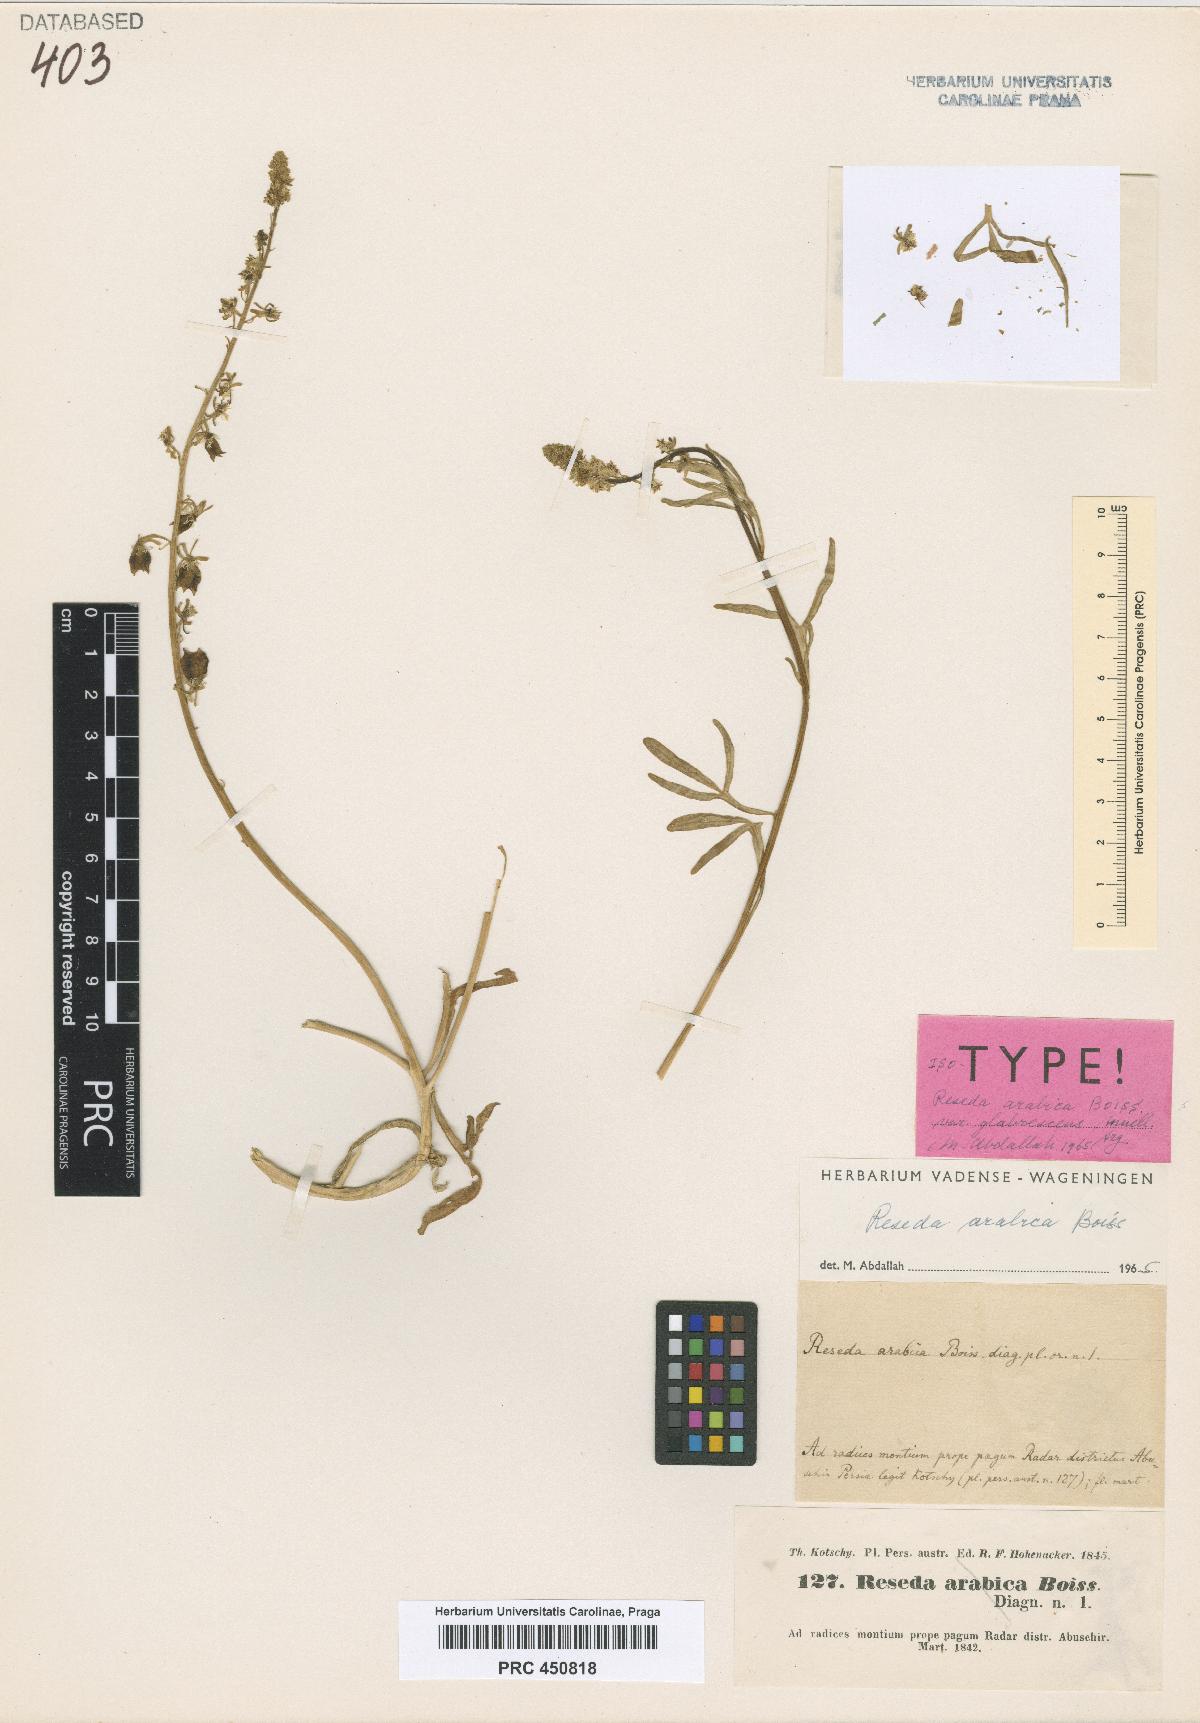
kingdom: Plantae
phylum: Tracheophyta
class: Magnoliopsida
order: Brassicales
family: Resedaceae
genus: Reseda
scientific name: Reseda arabica
